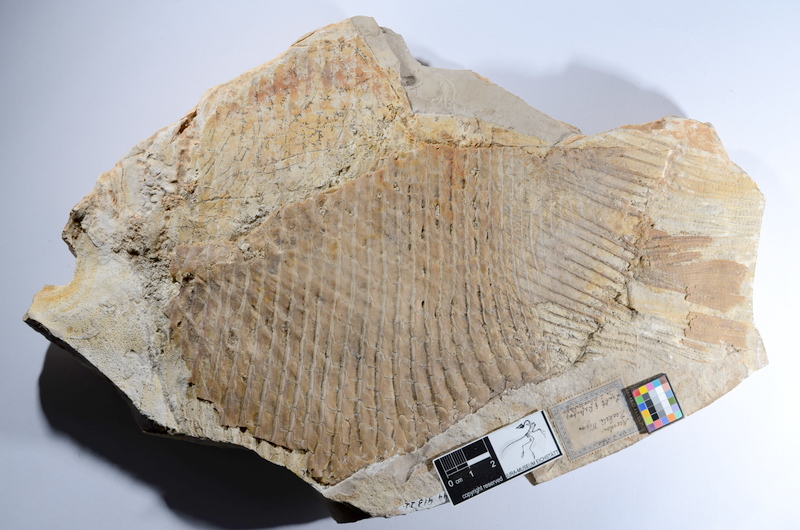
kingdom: Animalia
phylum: Chordata
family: Pycnodontes
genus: Macromesodon
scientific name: Macromesodon
